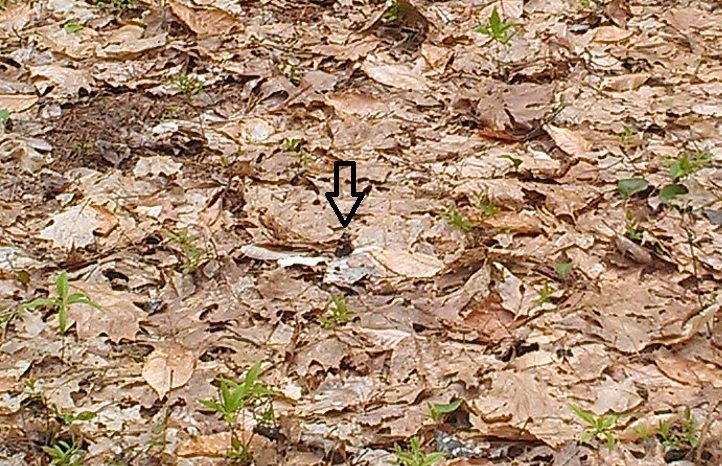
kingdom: Animalia
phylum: Arthropoda
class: Insecta
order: Lepidoptera
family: Nymphalidae
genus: Vanessa
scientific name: Vanessa atalanta
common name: Red Admiral
